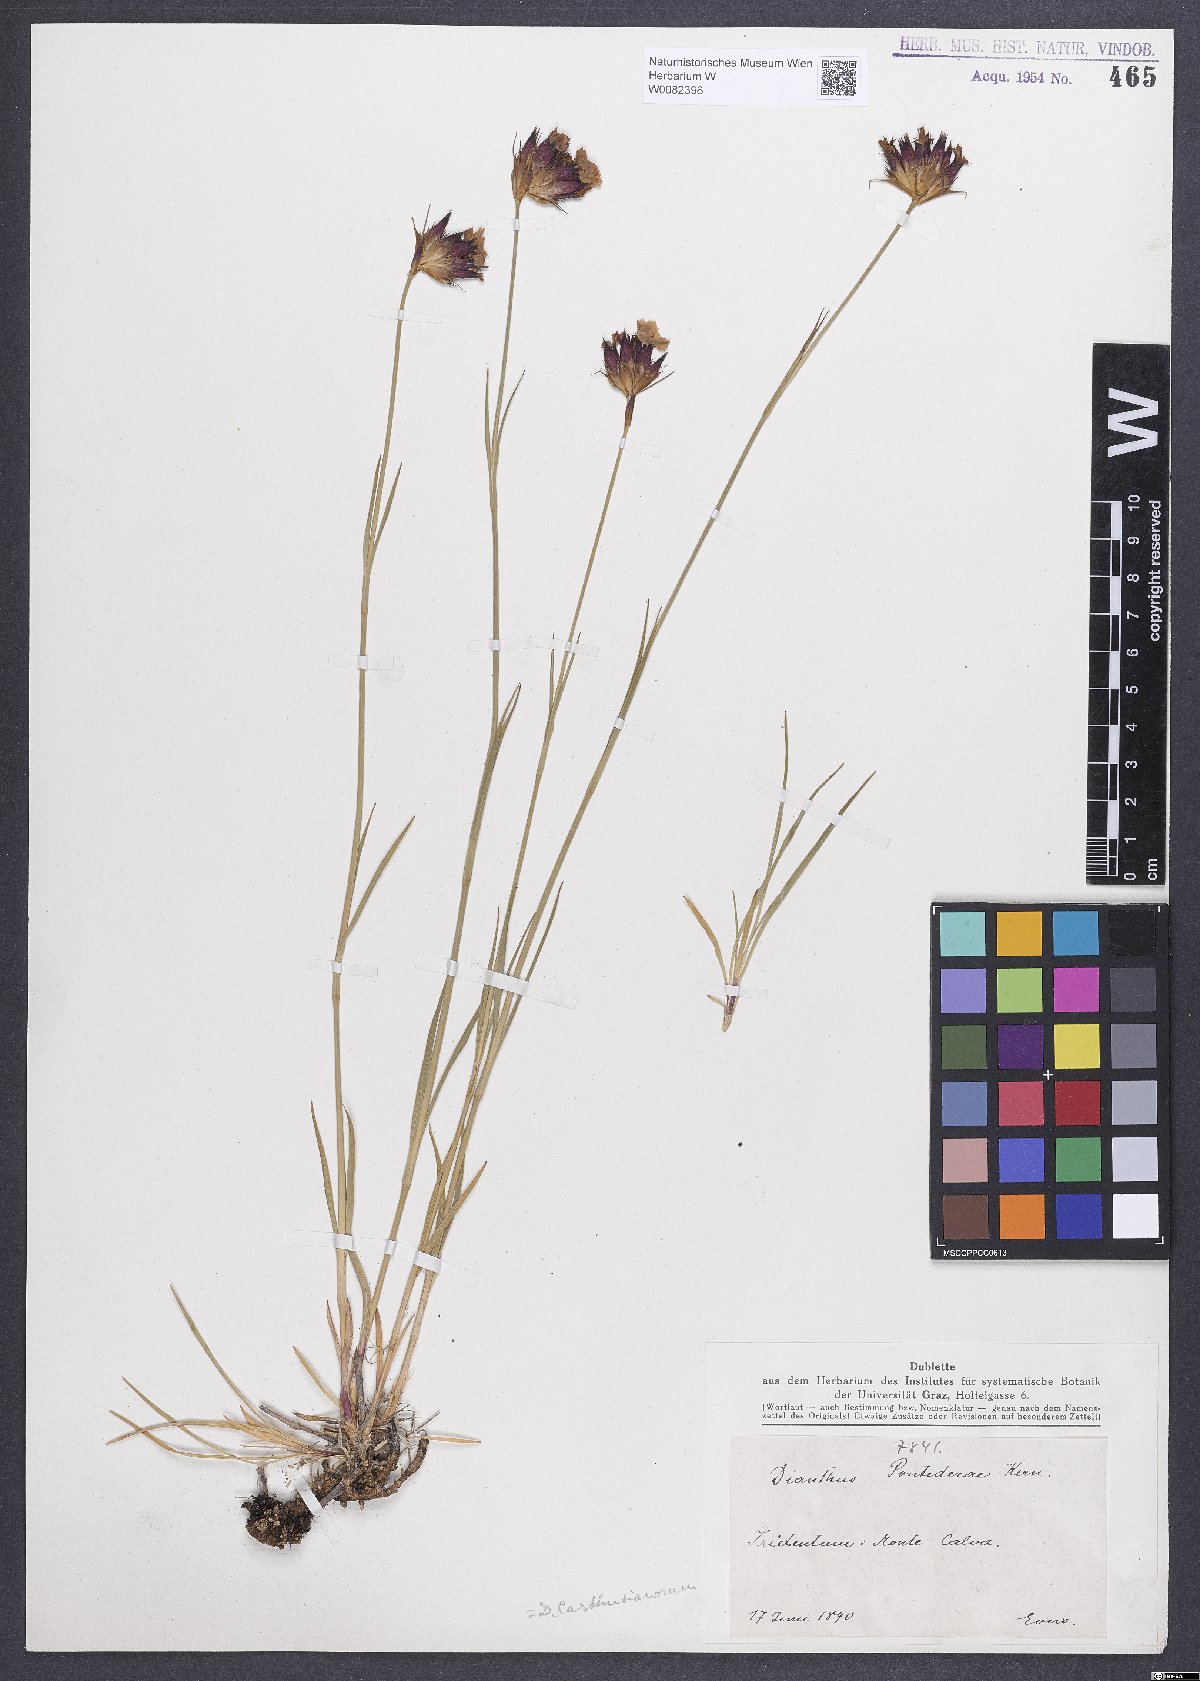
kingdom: Plantae
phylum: Tracheophyta
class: Magnoliopsida
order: Caryophyllales
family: Caryophyllaceae
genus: Dianthus
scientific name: Dianthus carthusianorum
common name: Carthusian pink
